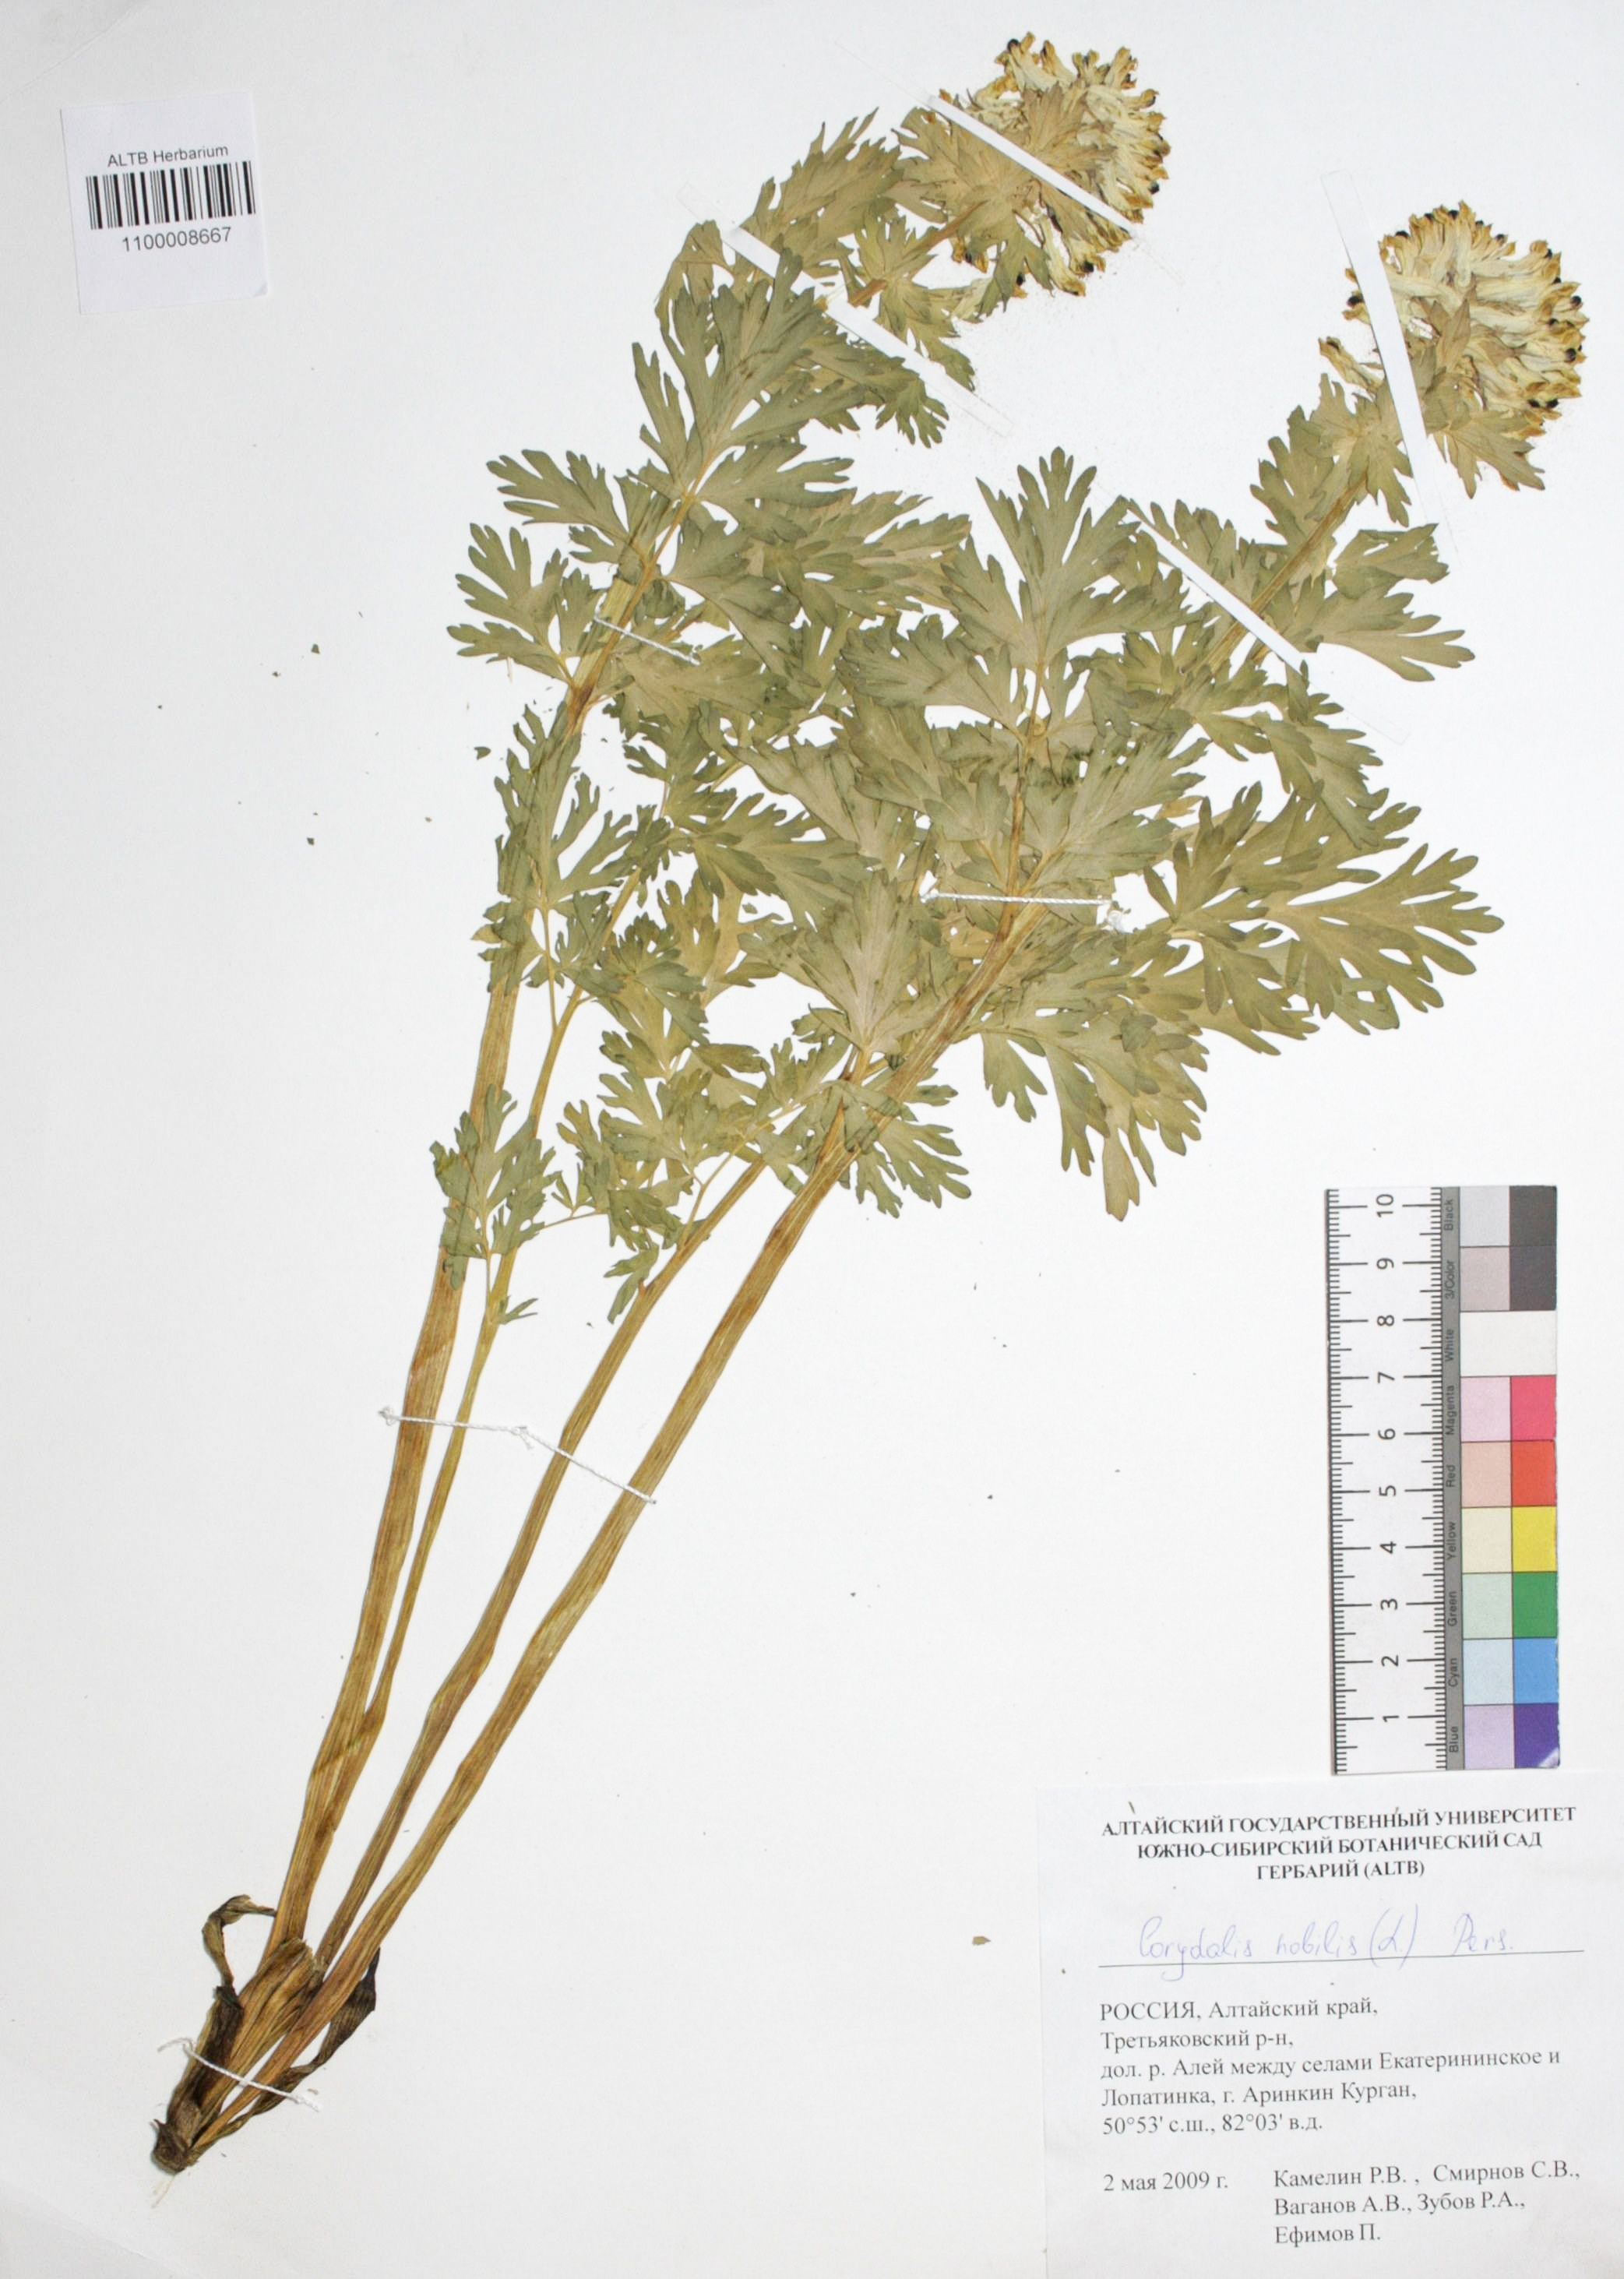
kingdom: Plantae
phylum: Tracheophyta
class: Magnoliopsida
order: Ranunculales
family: Papaveraceae
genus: Corydalis
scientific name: Corydalis nobilis
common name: Siberian corydalis
